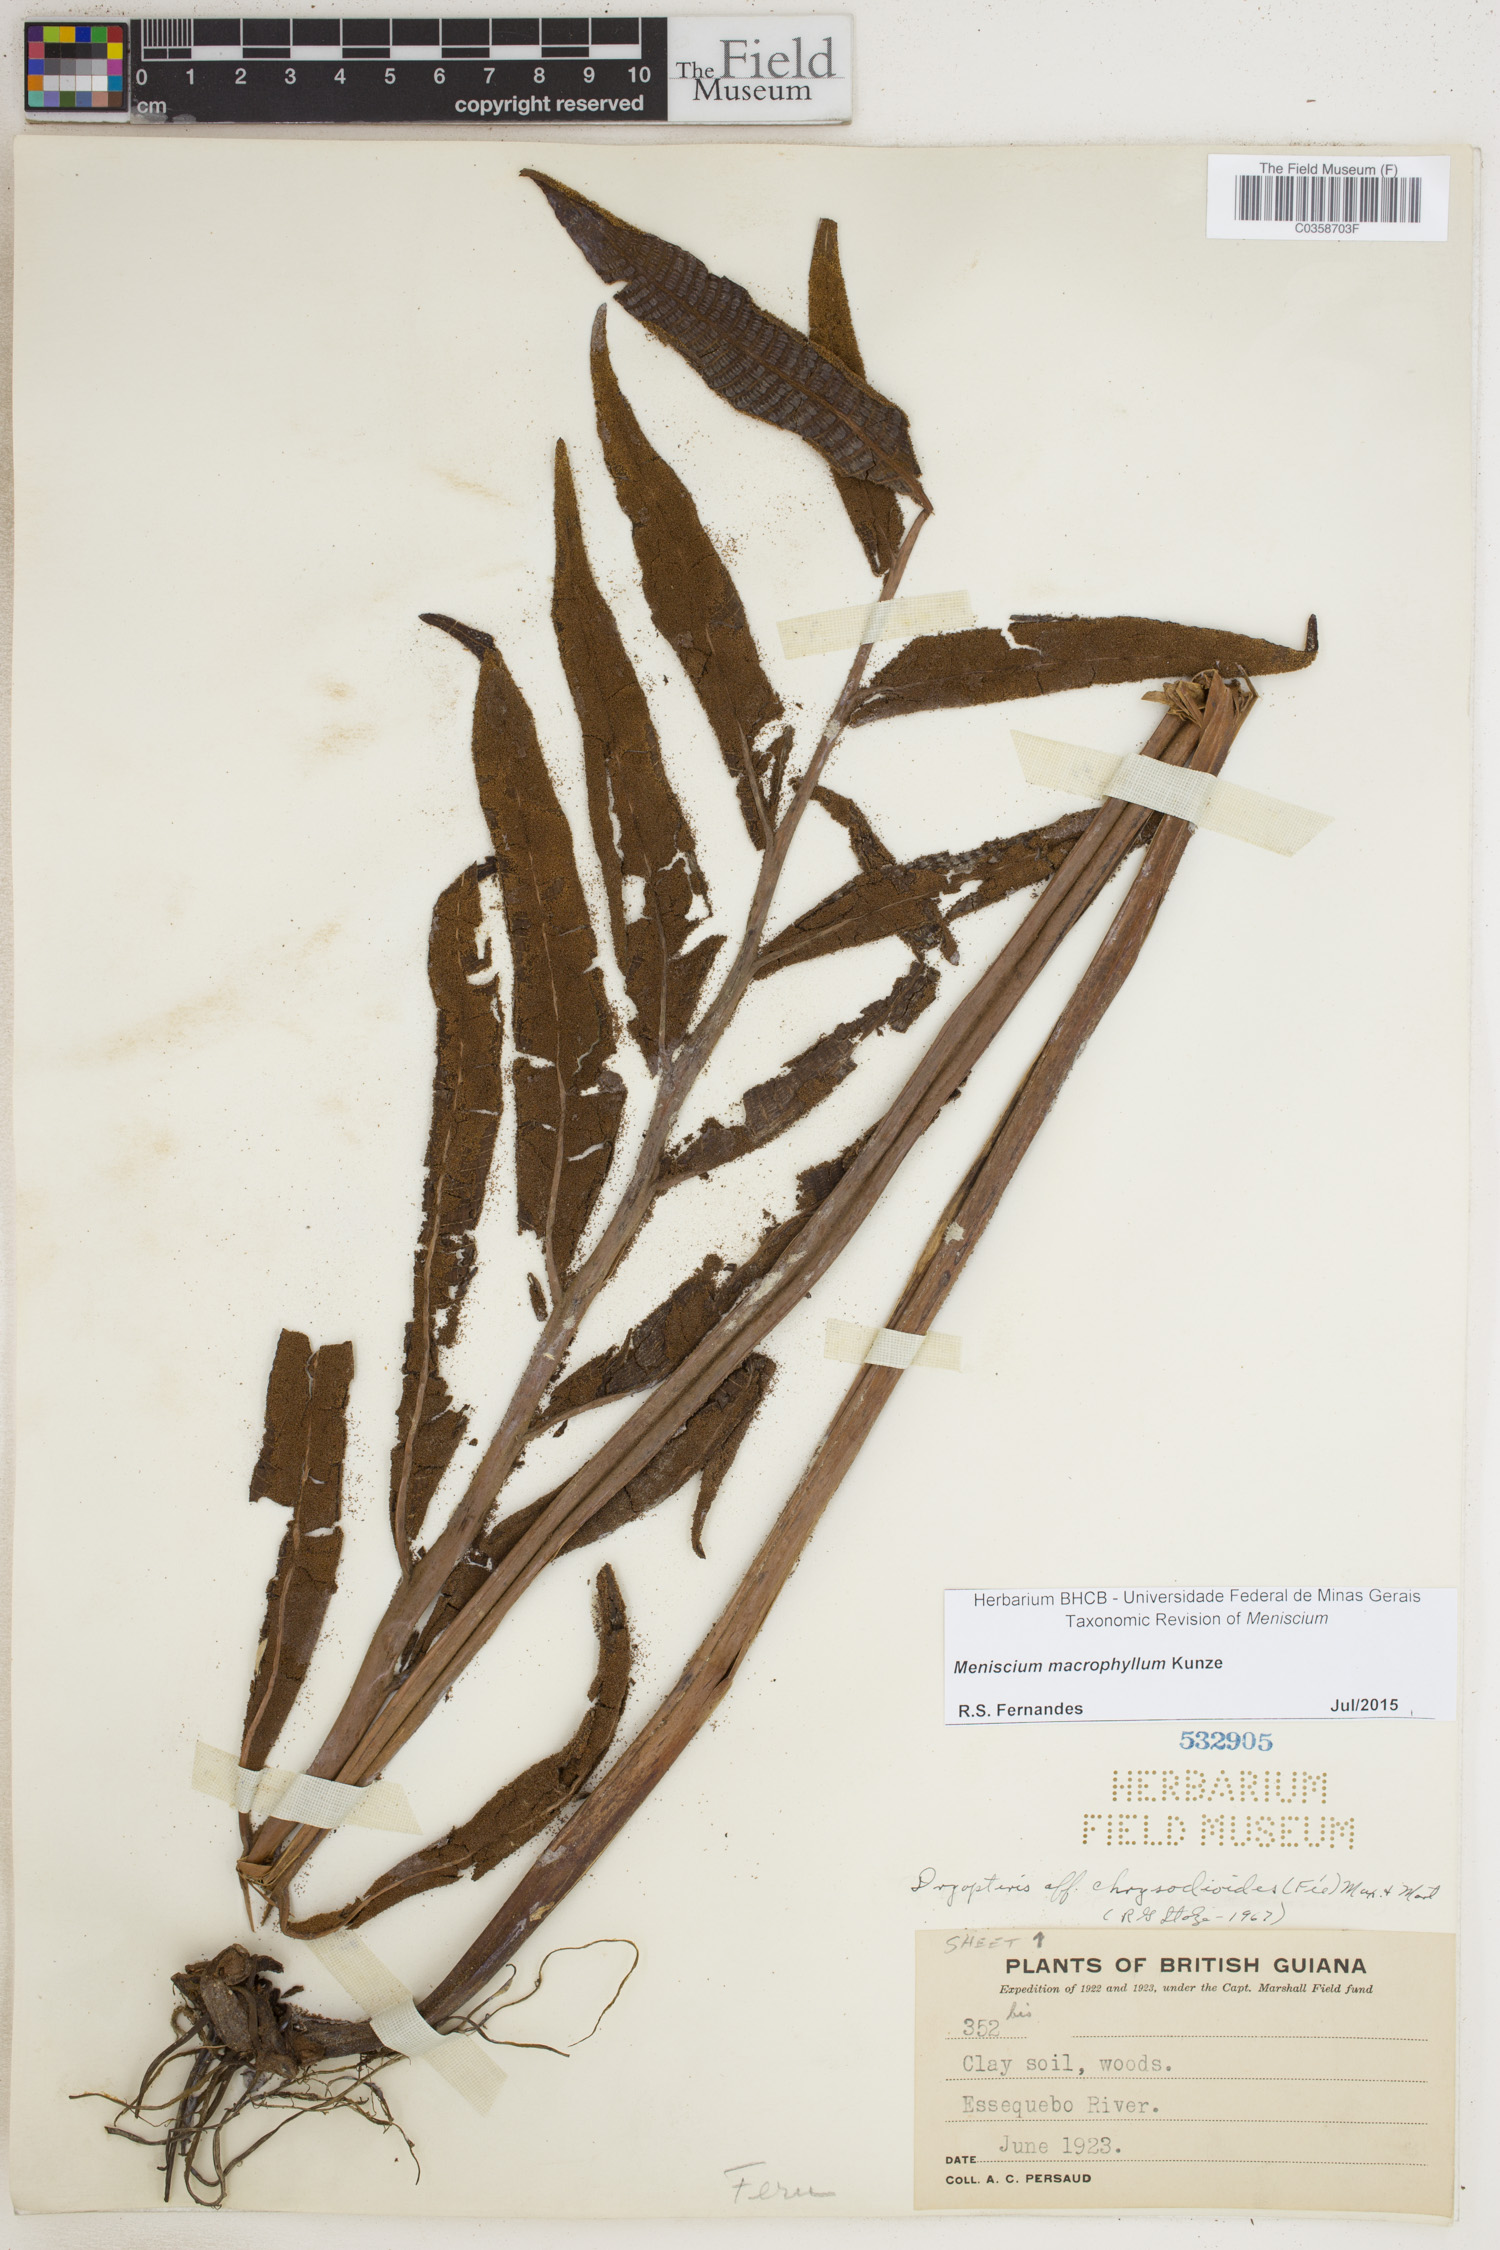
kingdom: Plantae
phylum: Tracheophyta
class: Polypodiopsida
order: Polypodiales
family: Thelypteridaceae
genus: Meniscium
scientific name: Meniscium macrophyllum
